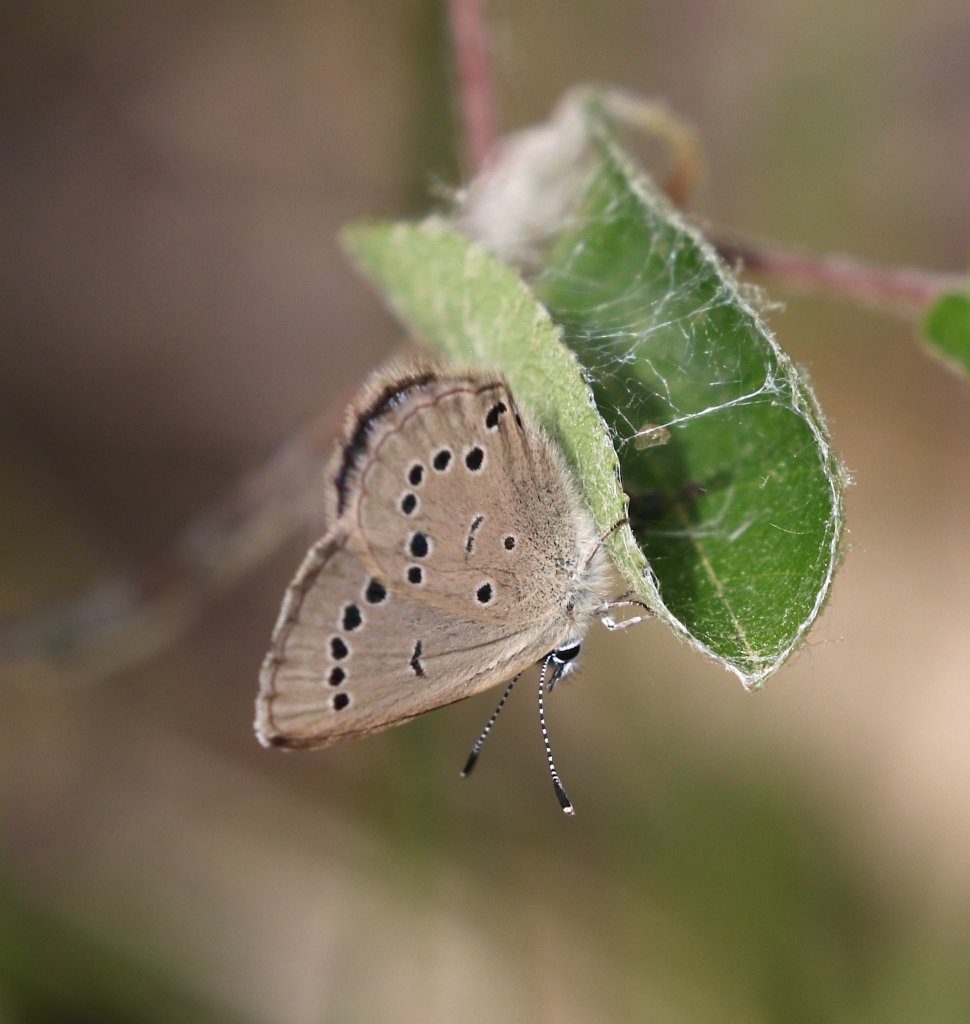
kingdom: Animalia
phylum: Arthropoda
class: Insecta
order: Lepidoptera
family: Lycaenidae
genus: Glaucopsyche
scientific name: Glaucopsyche lygdamus
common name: Silvery Blue
